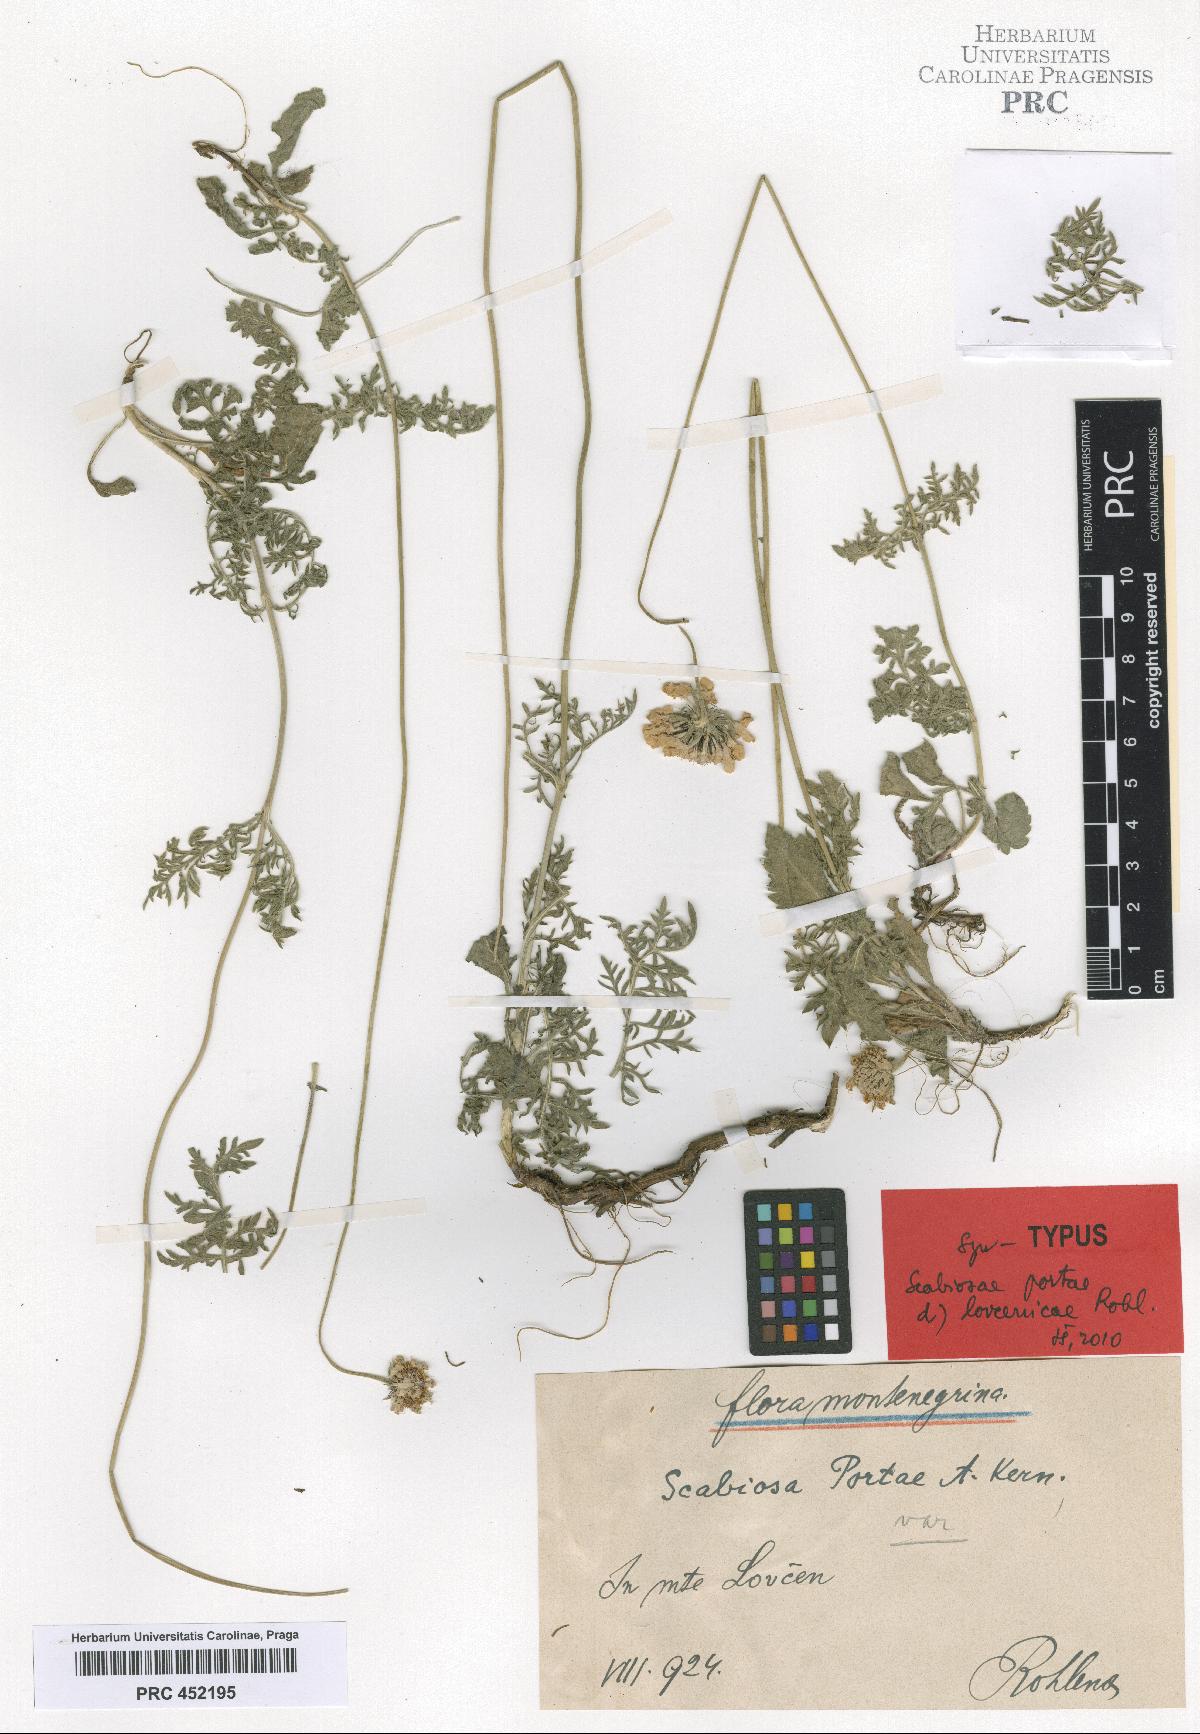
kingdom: Plantae
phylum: Tracheophyta
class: Magnoliopsida
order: Dipsacales
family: Caprifoliaceae
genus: Scabiosa
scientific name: Scabiosa taygetea
